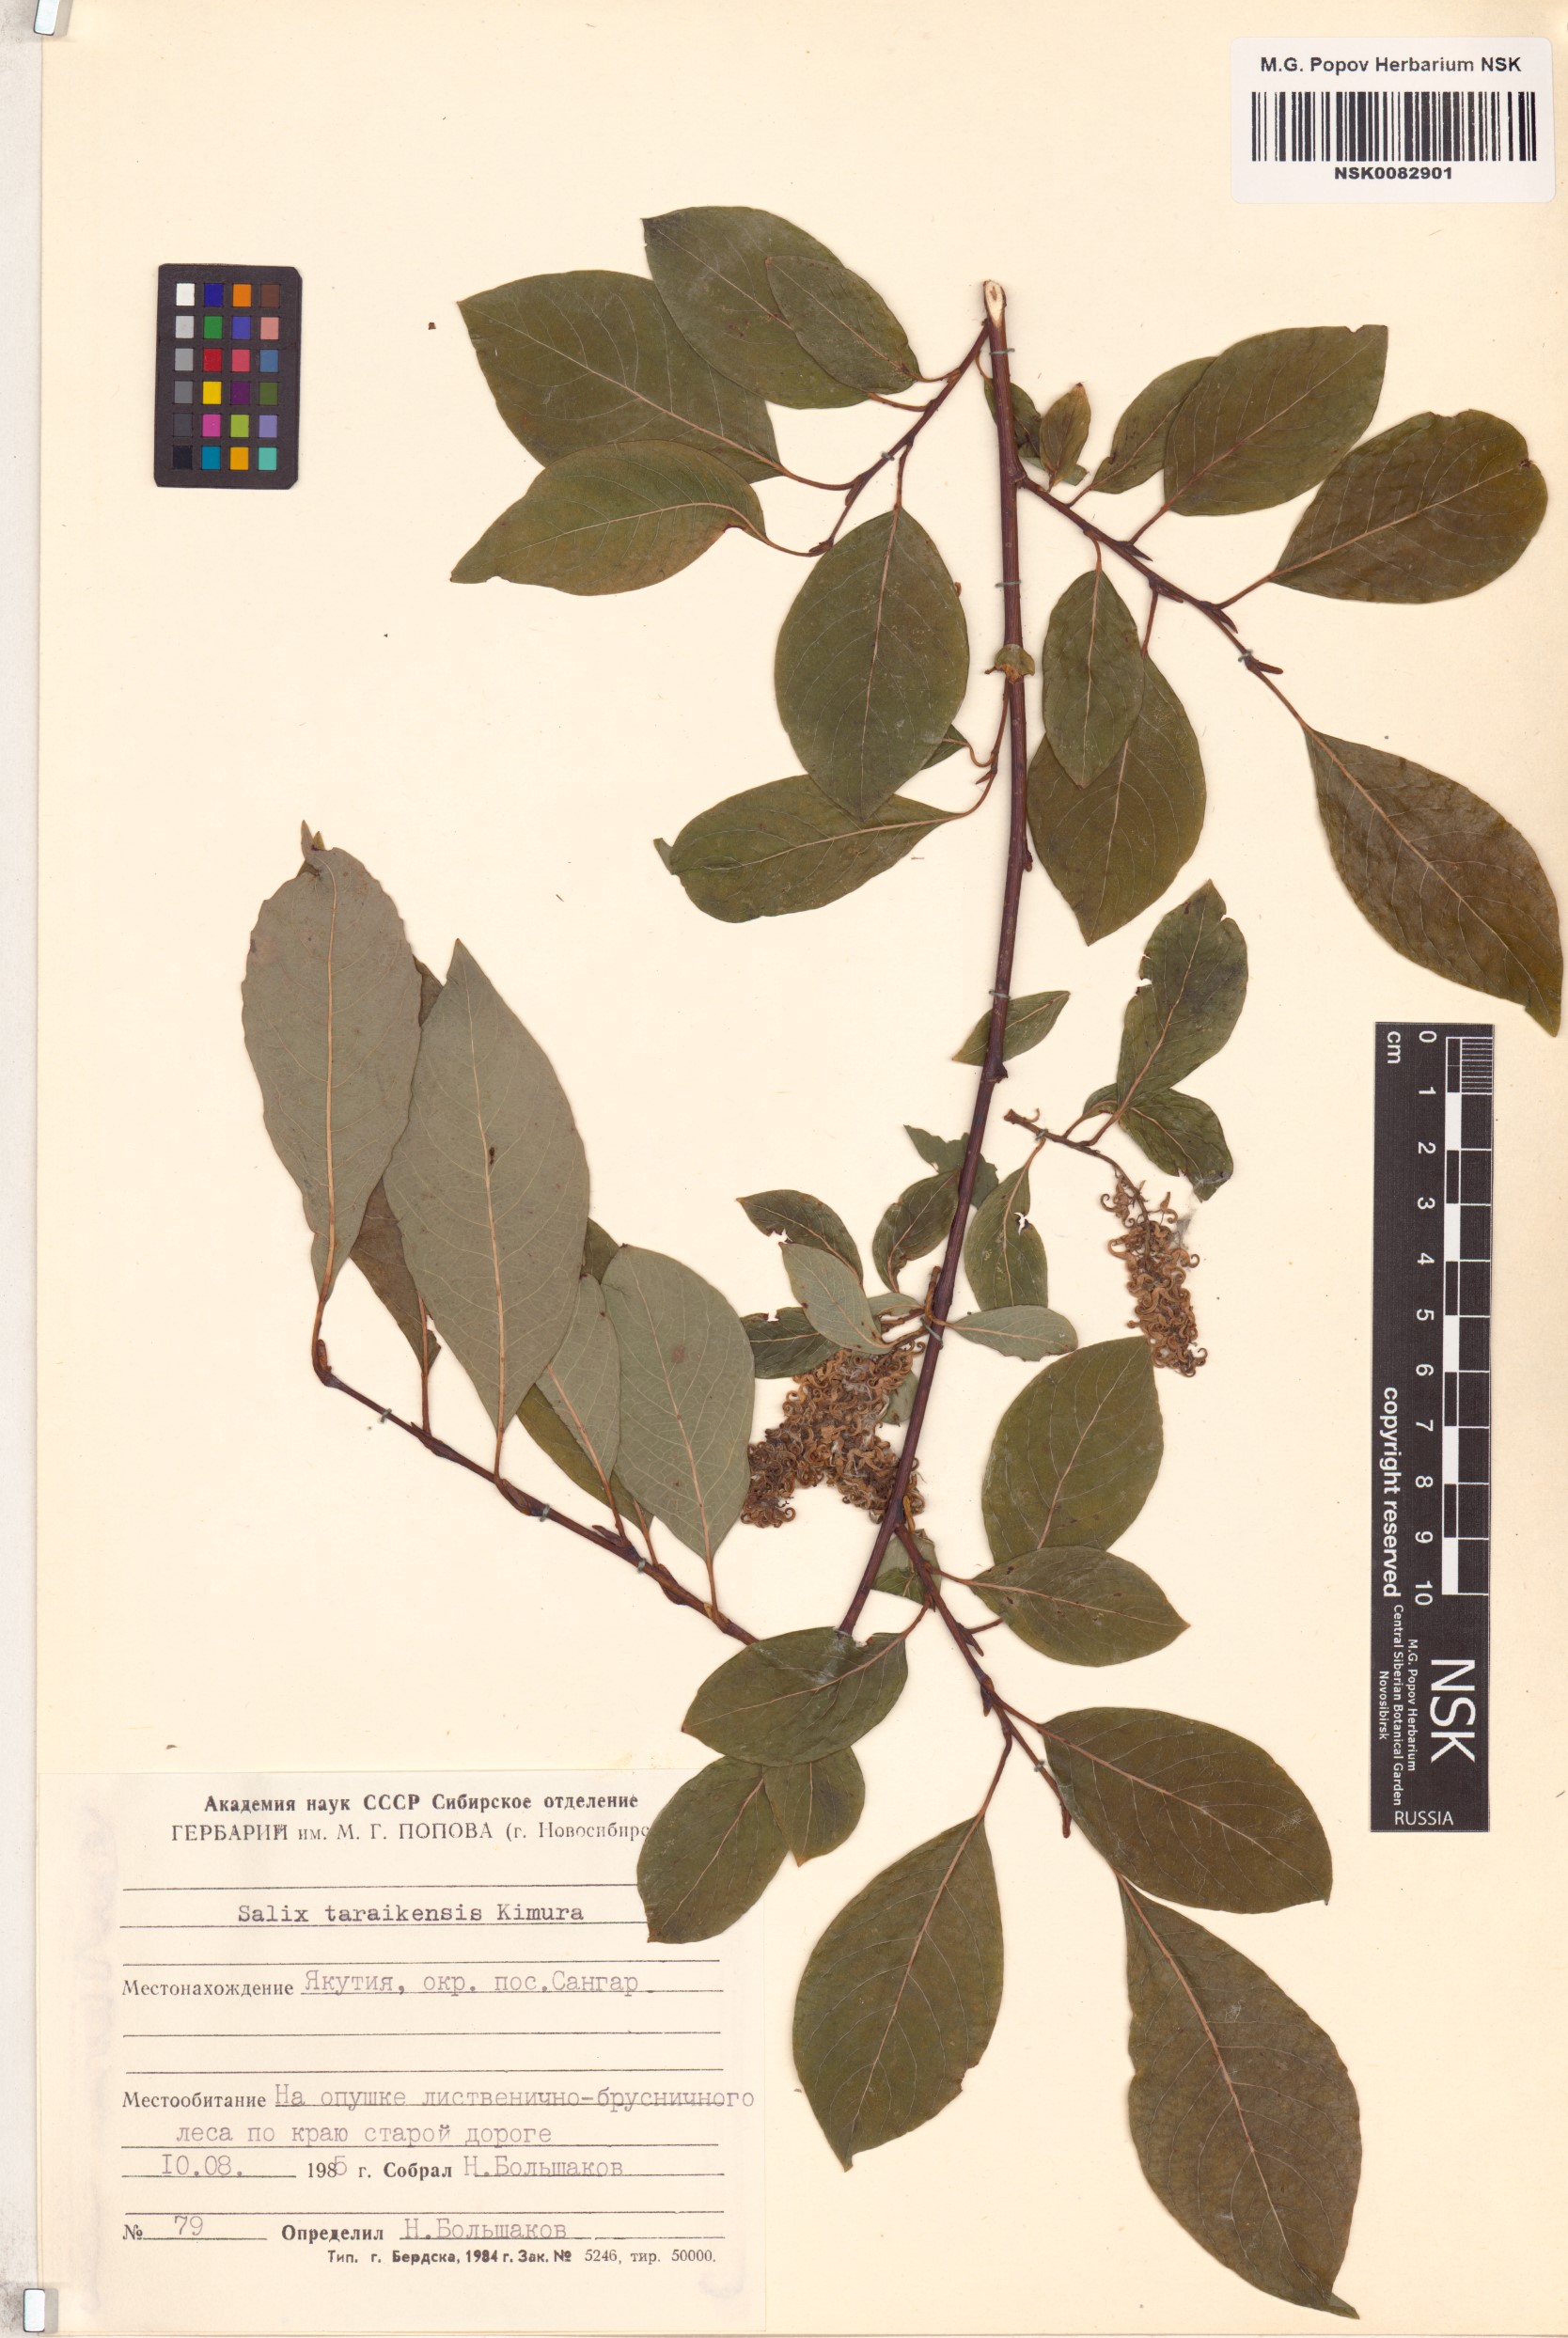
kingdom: Plantae
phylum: Tracheophyta
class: Magnoliopsida
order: Malpighiales
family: Salicaceae
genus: Salix
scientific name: Salix taraikensis
